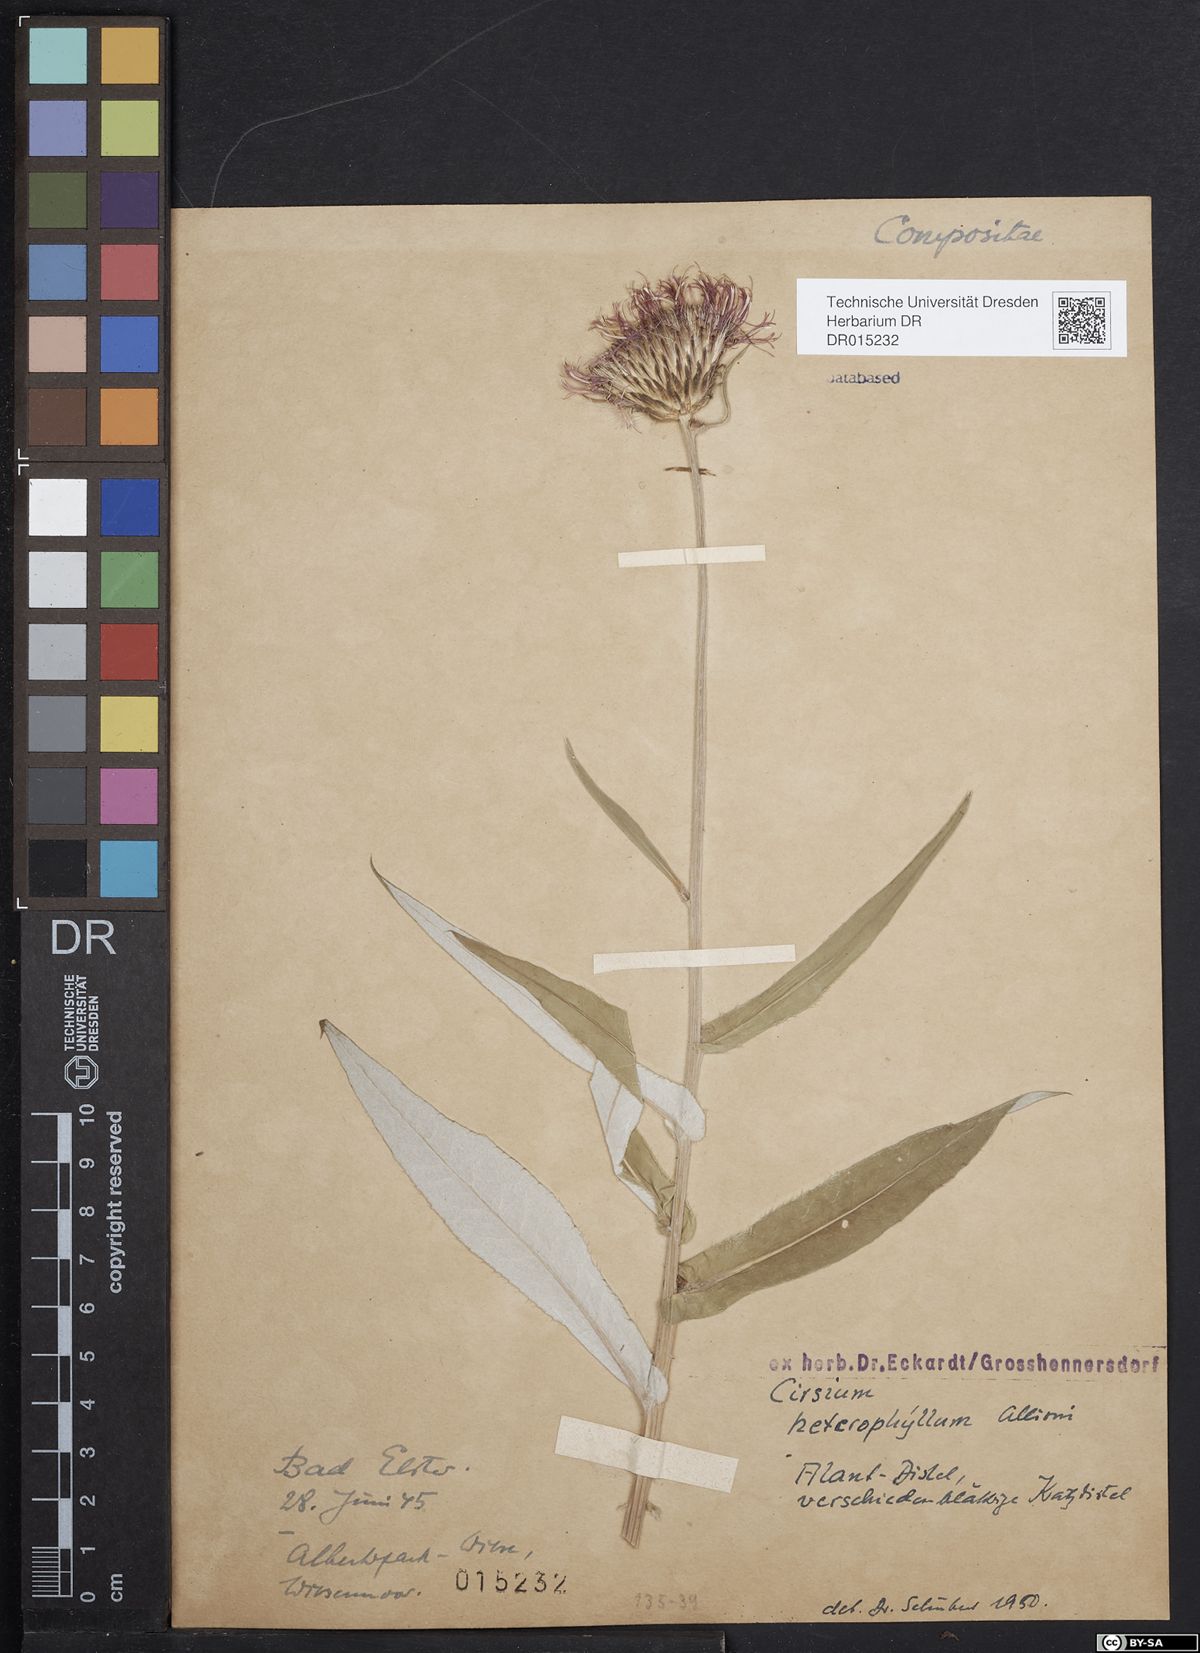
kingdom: Plantae
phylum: Tracheophyta
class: Magnoliopsida
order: Asterales
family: Asteraceae
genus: Cirsium
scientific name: Cirsium heterophyllum
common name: Melancholy thistle
